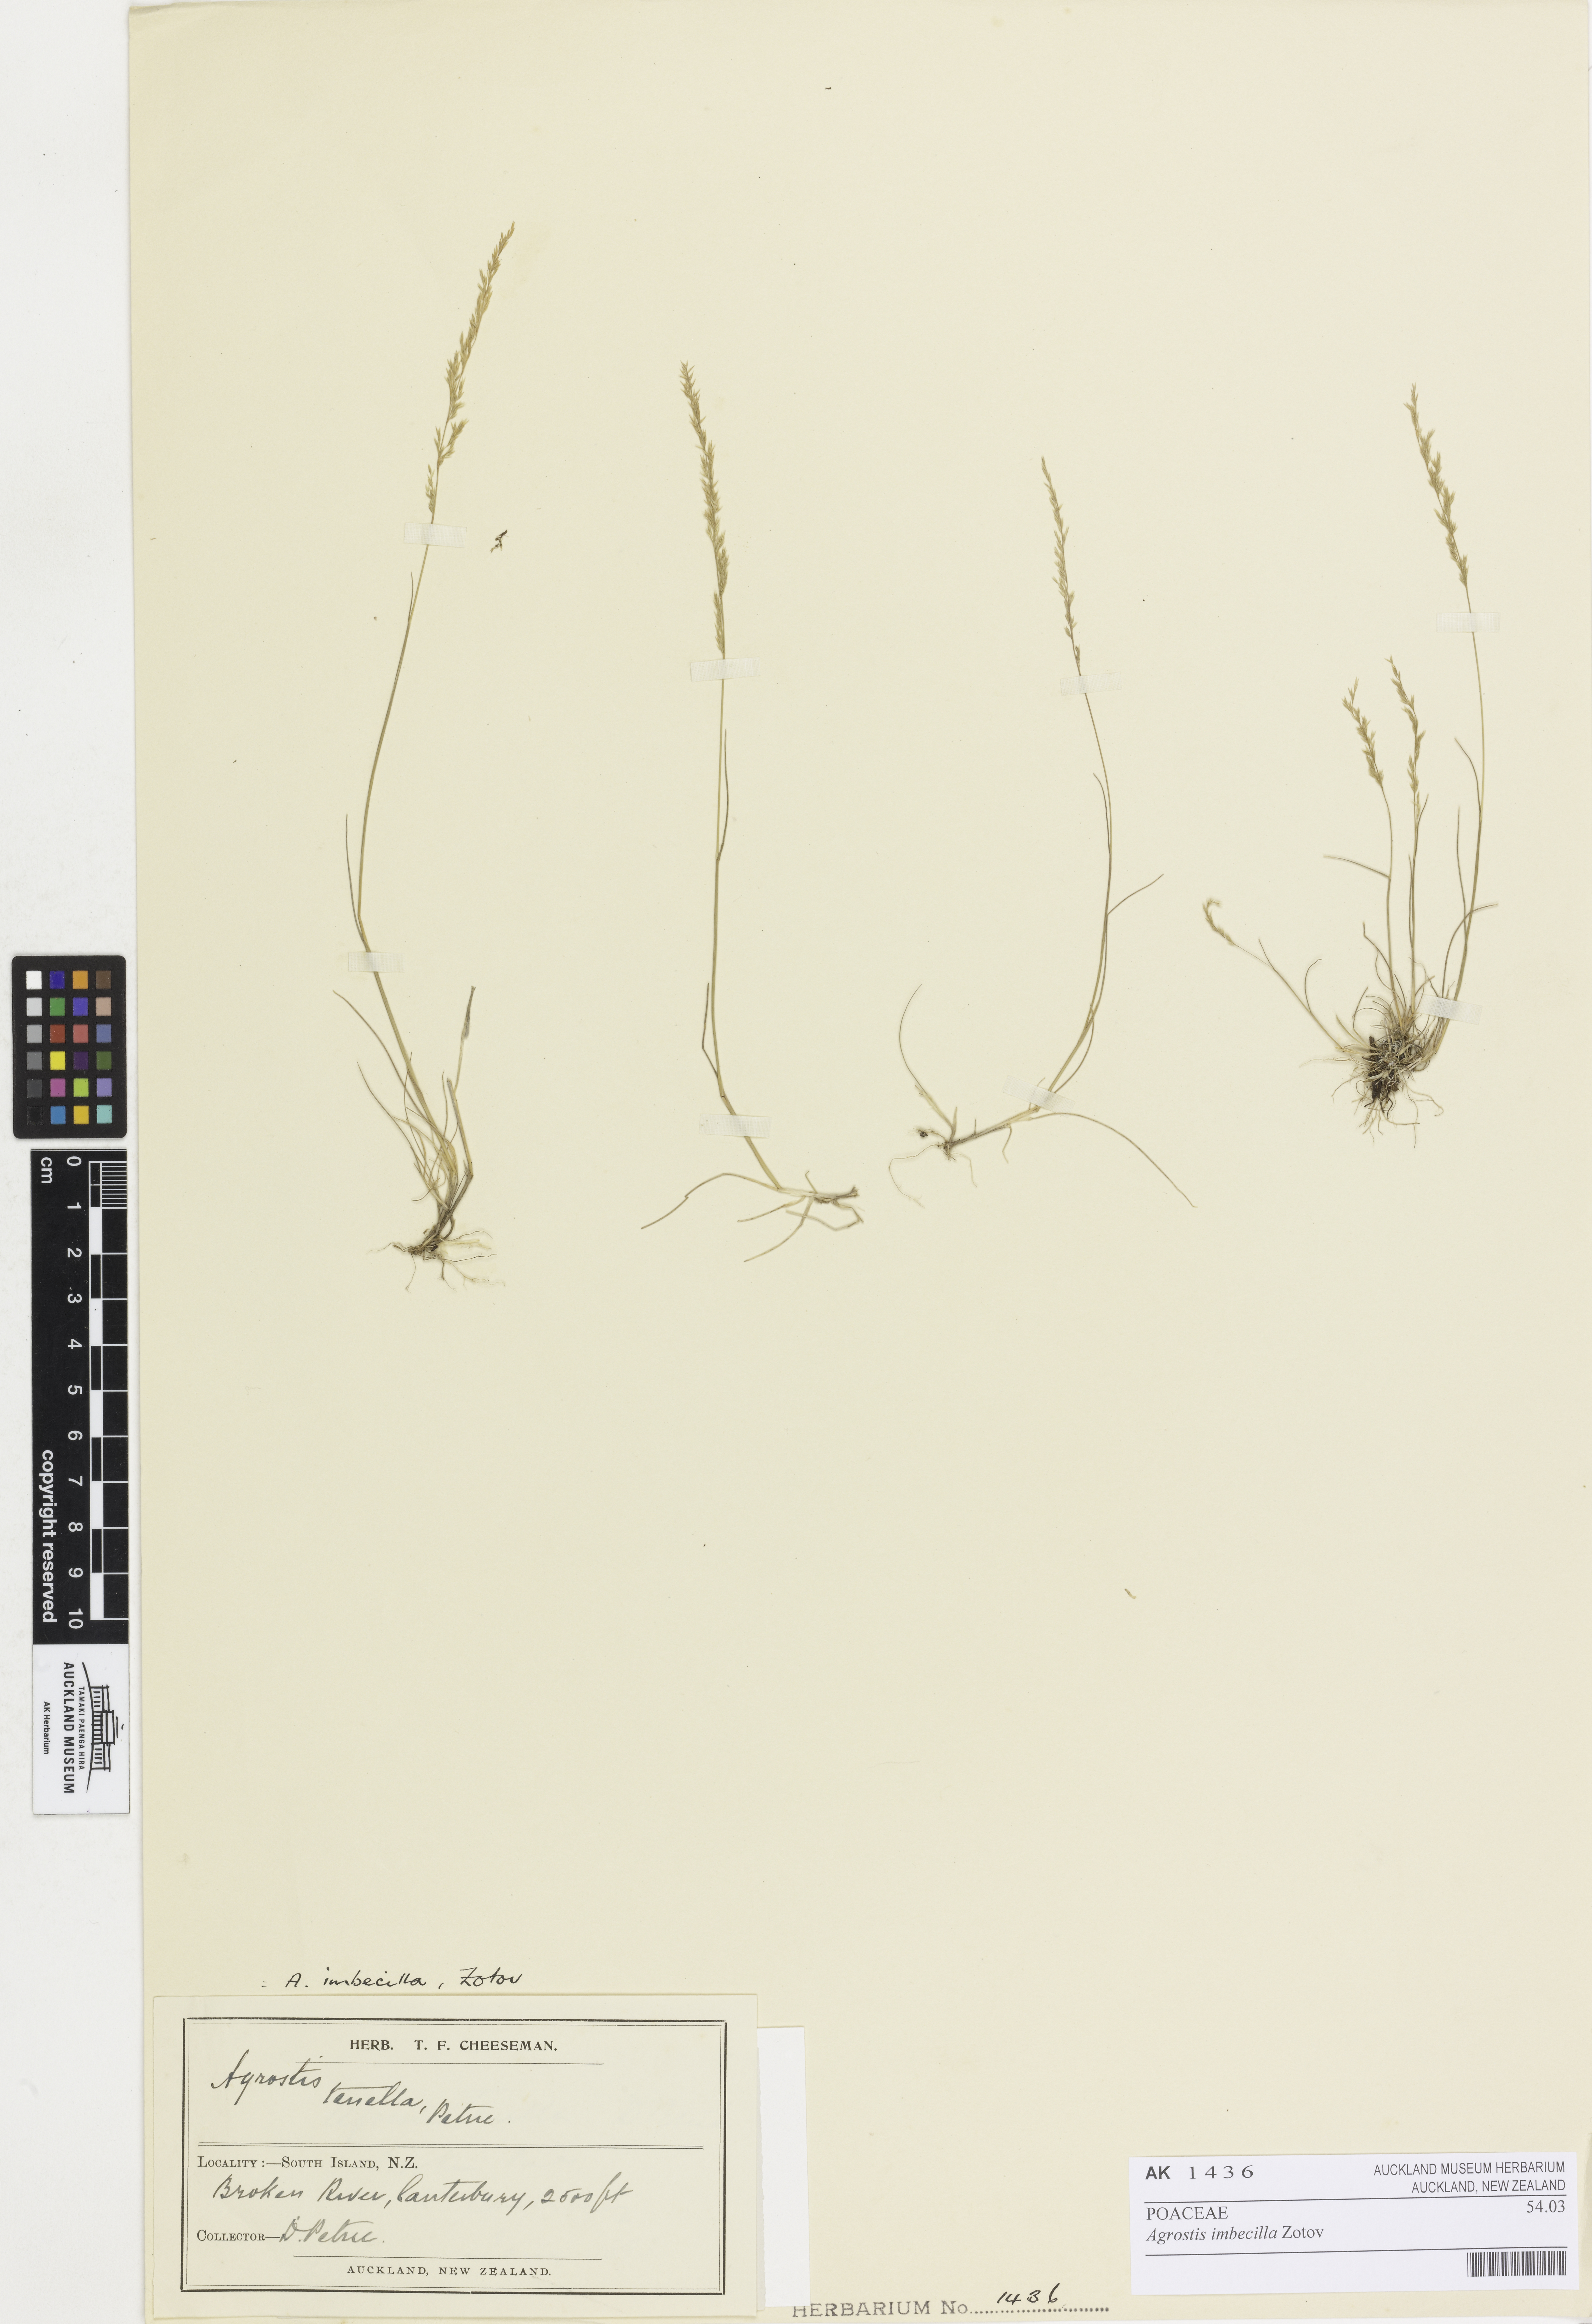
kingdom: Plantae
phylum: Tracheophyta
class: Liliopsida
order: Poales
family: Poaceae
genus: Agrostis
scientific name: Agrostis imbecilla
